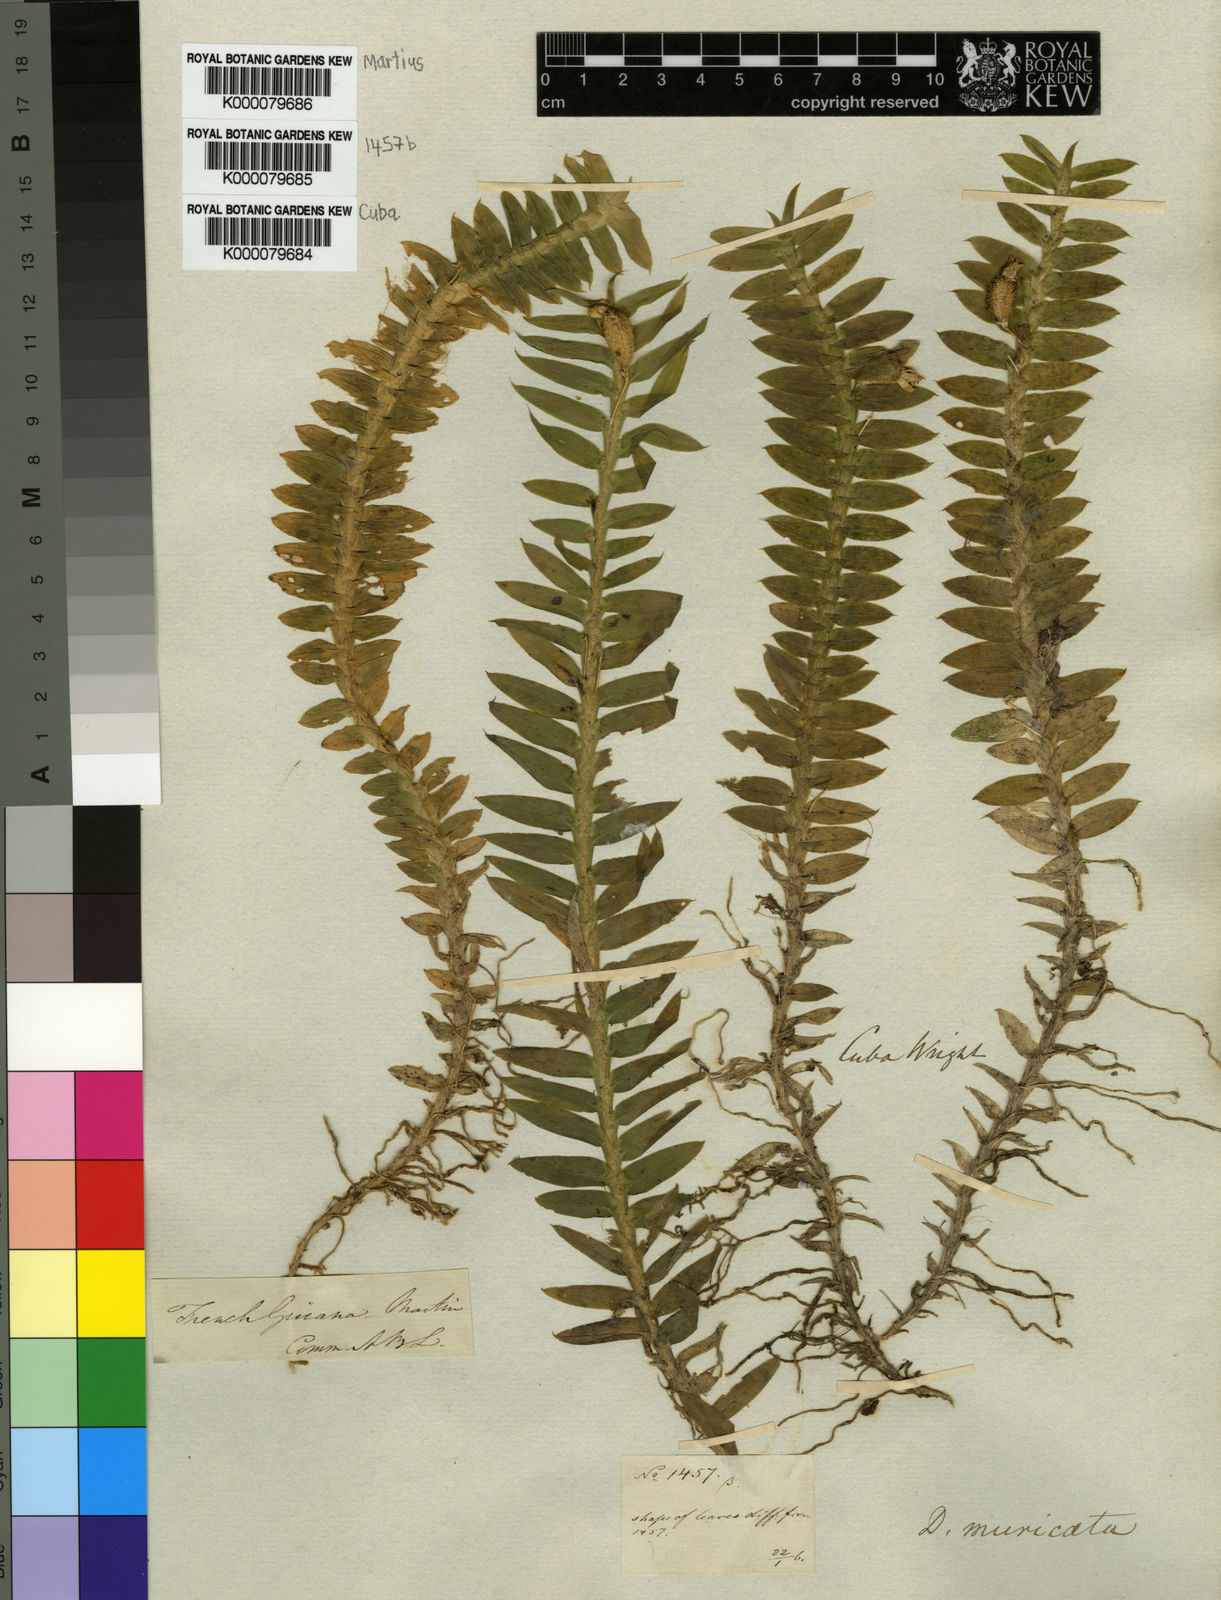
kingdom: Plantae
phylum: Tracheophyta
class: Liliopsida
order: Asparagales
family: Orchidaceae
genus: Dichaea
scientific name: Dichaea morrisii
